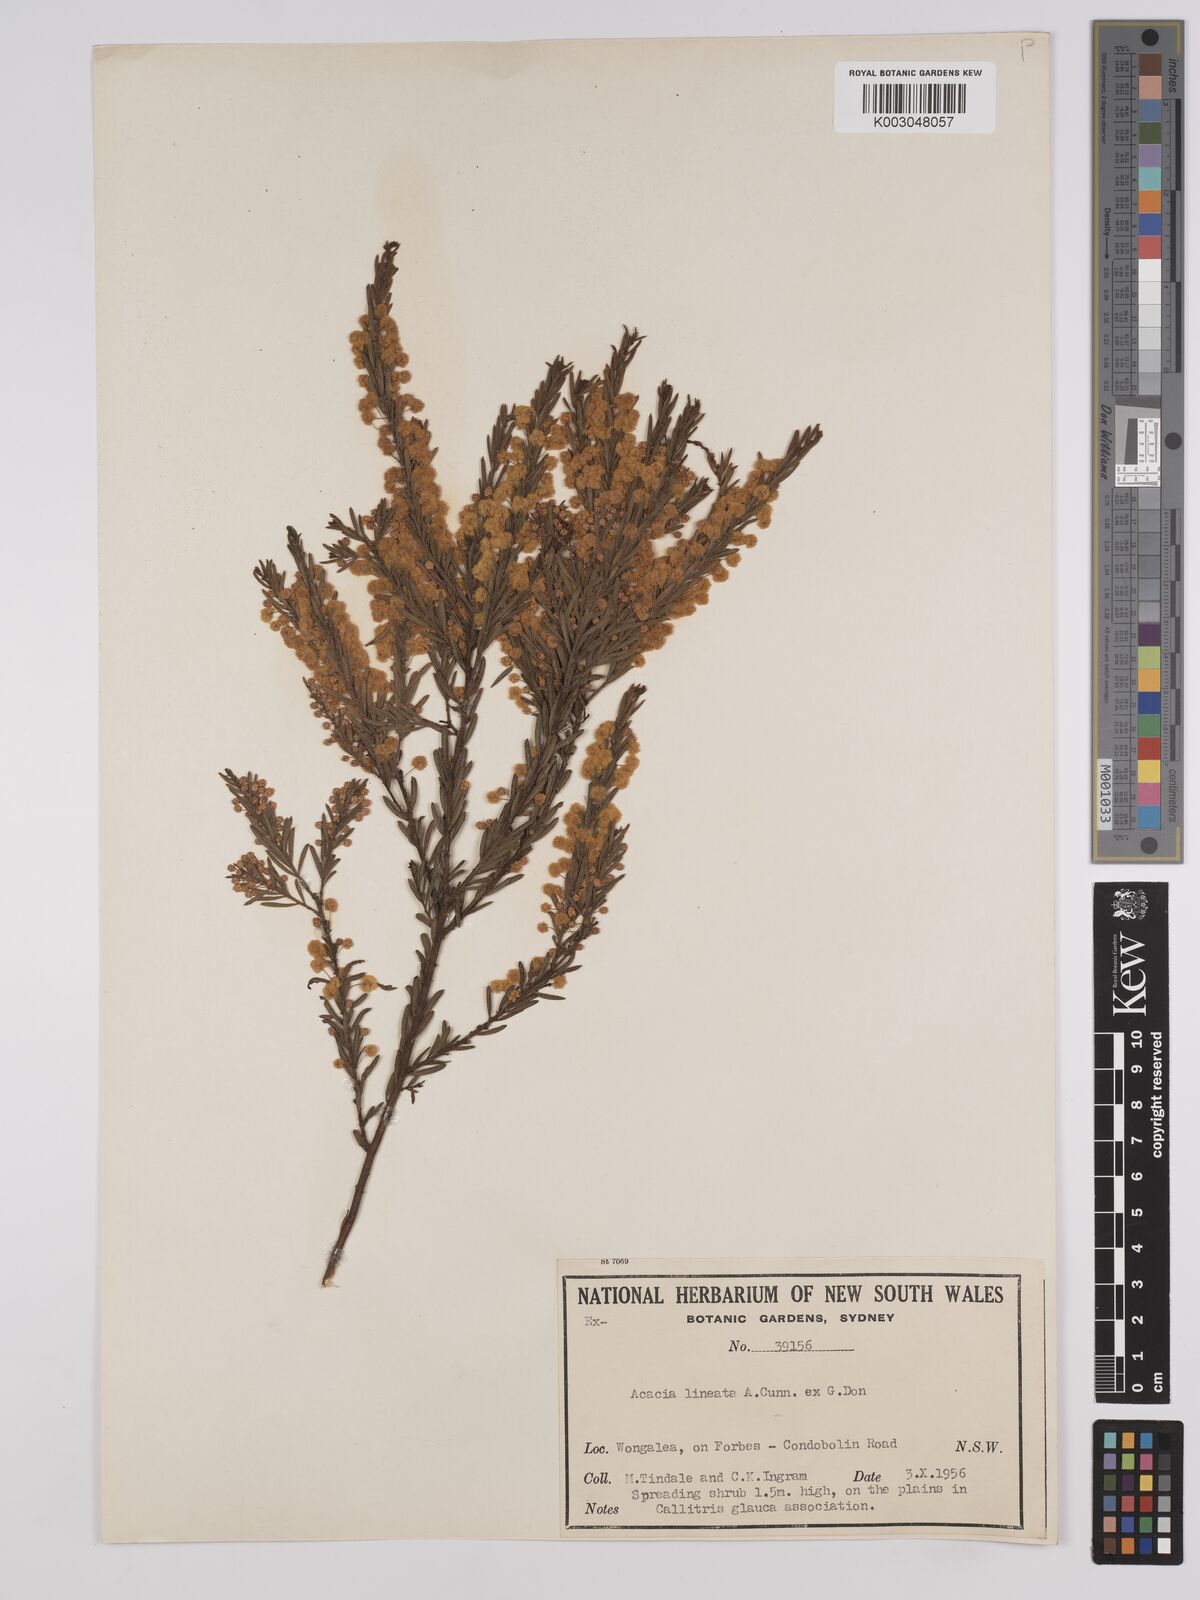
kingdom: Plantae
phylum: Tracheophyta
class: Magnoliopsida
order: Fabales
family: Fabaceae
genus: Acacia
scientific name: Acacia lineata
